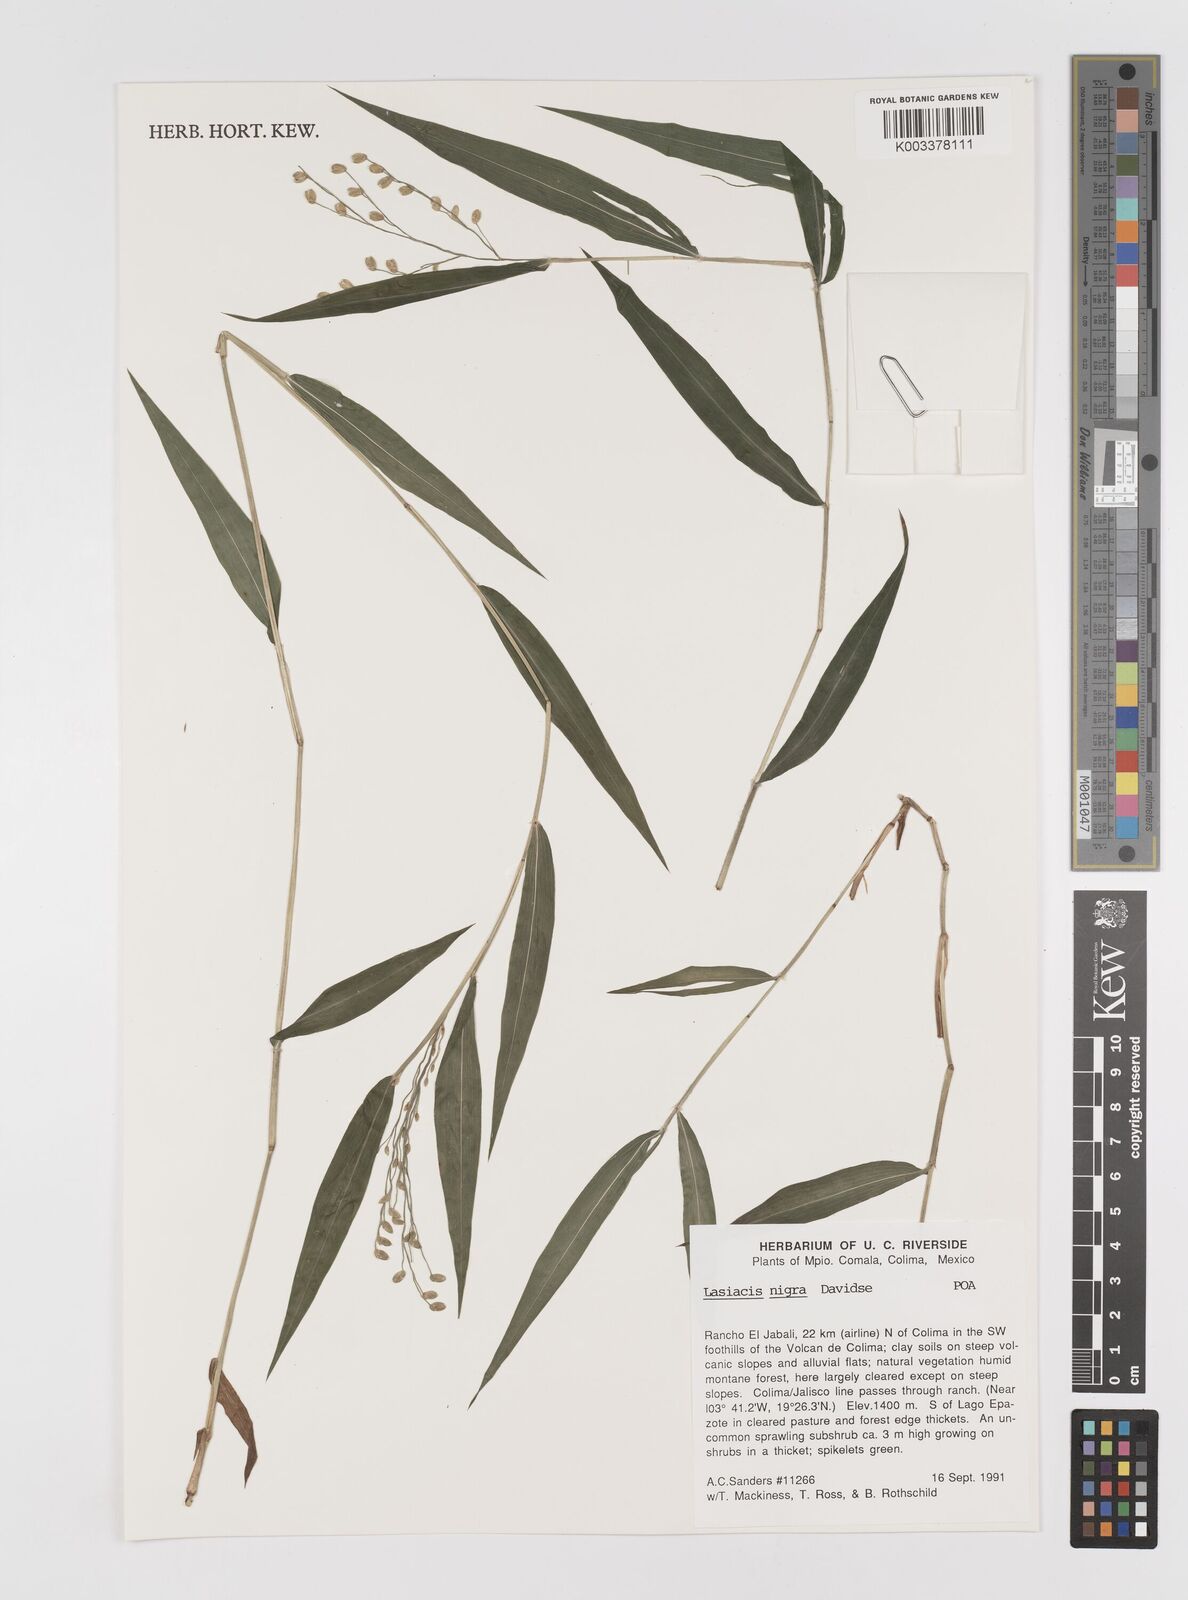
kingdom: Plantae
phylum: Tracheophyta
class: Liliopsida
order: Poales
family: Poaceae
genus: Lasiacis
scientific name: Lasiacis nigra
